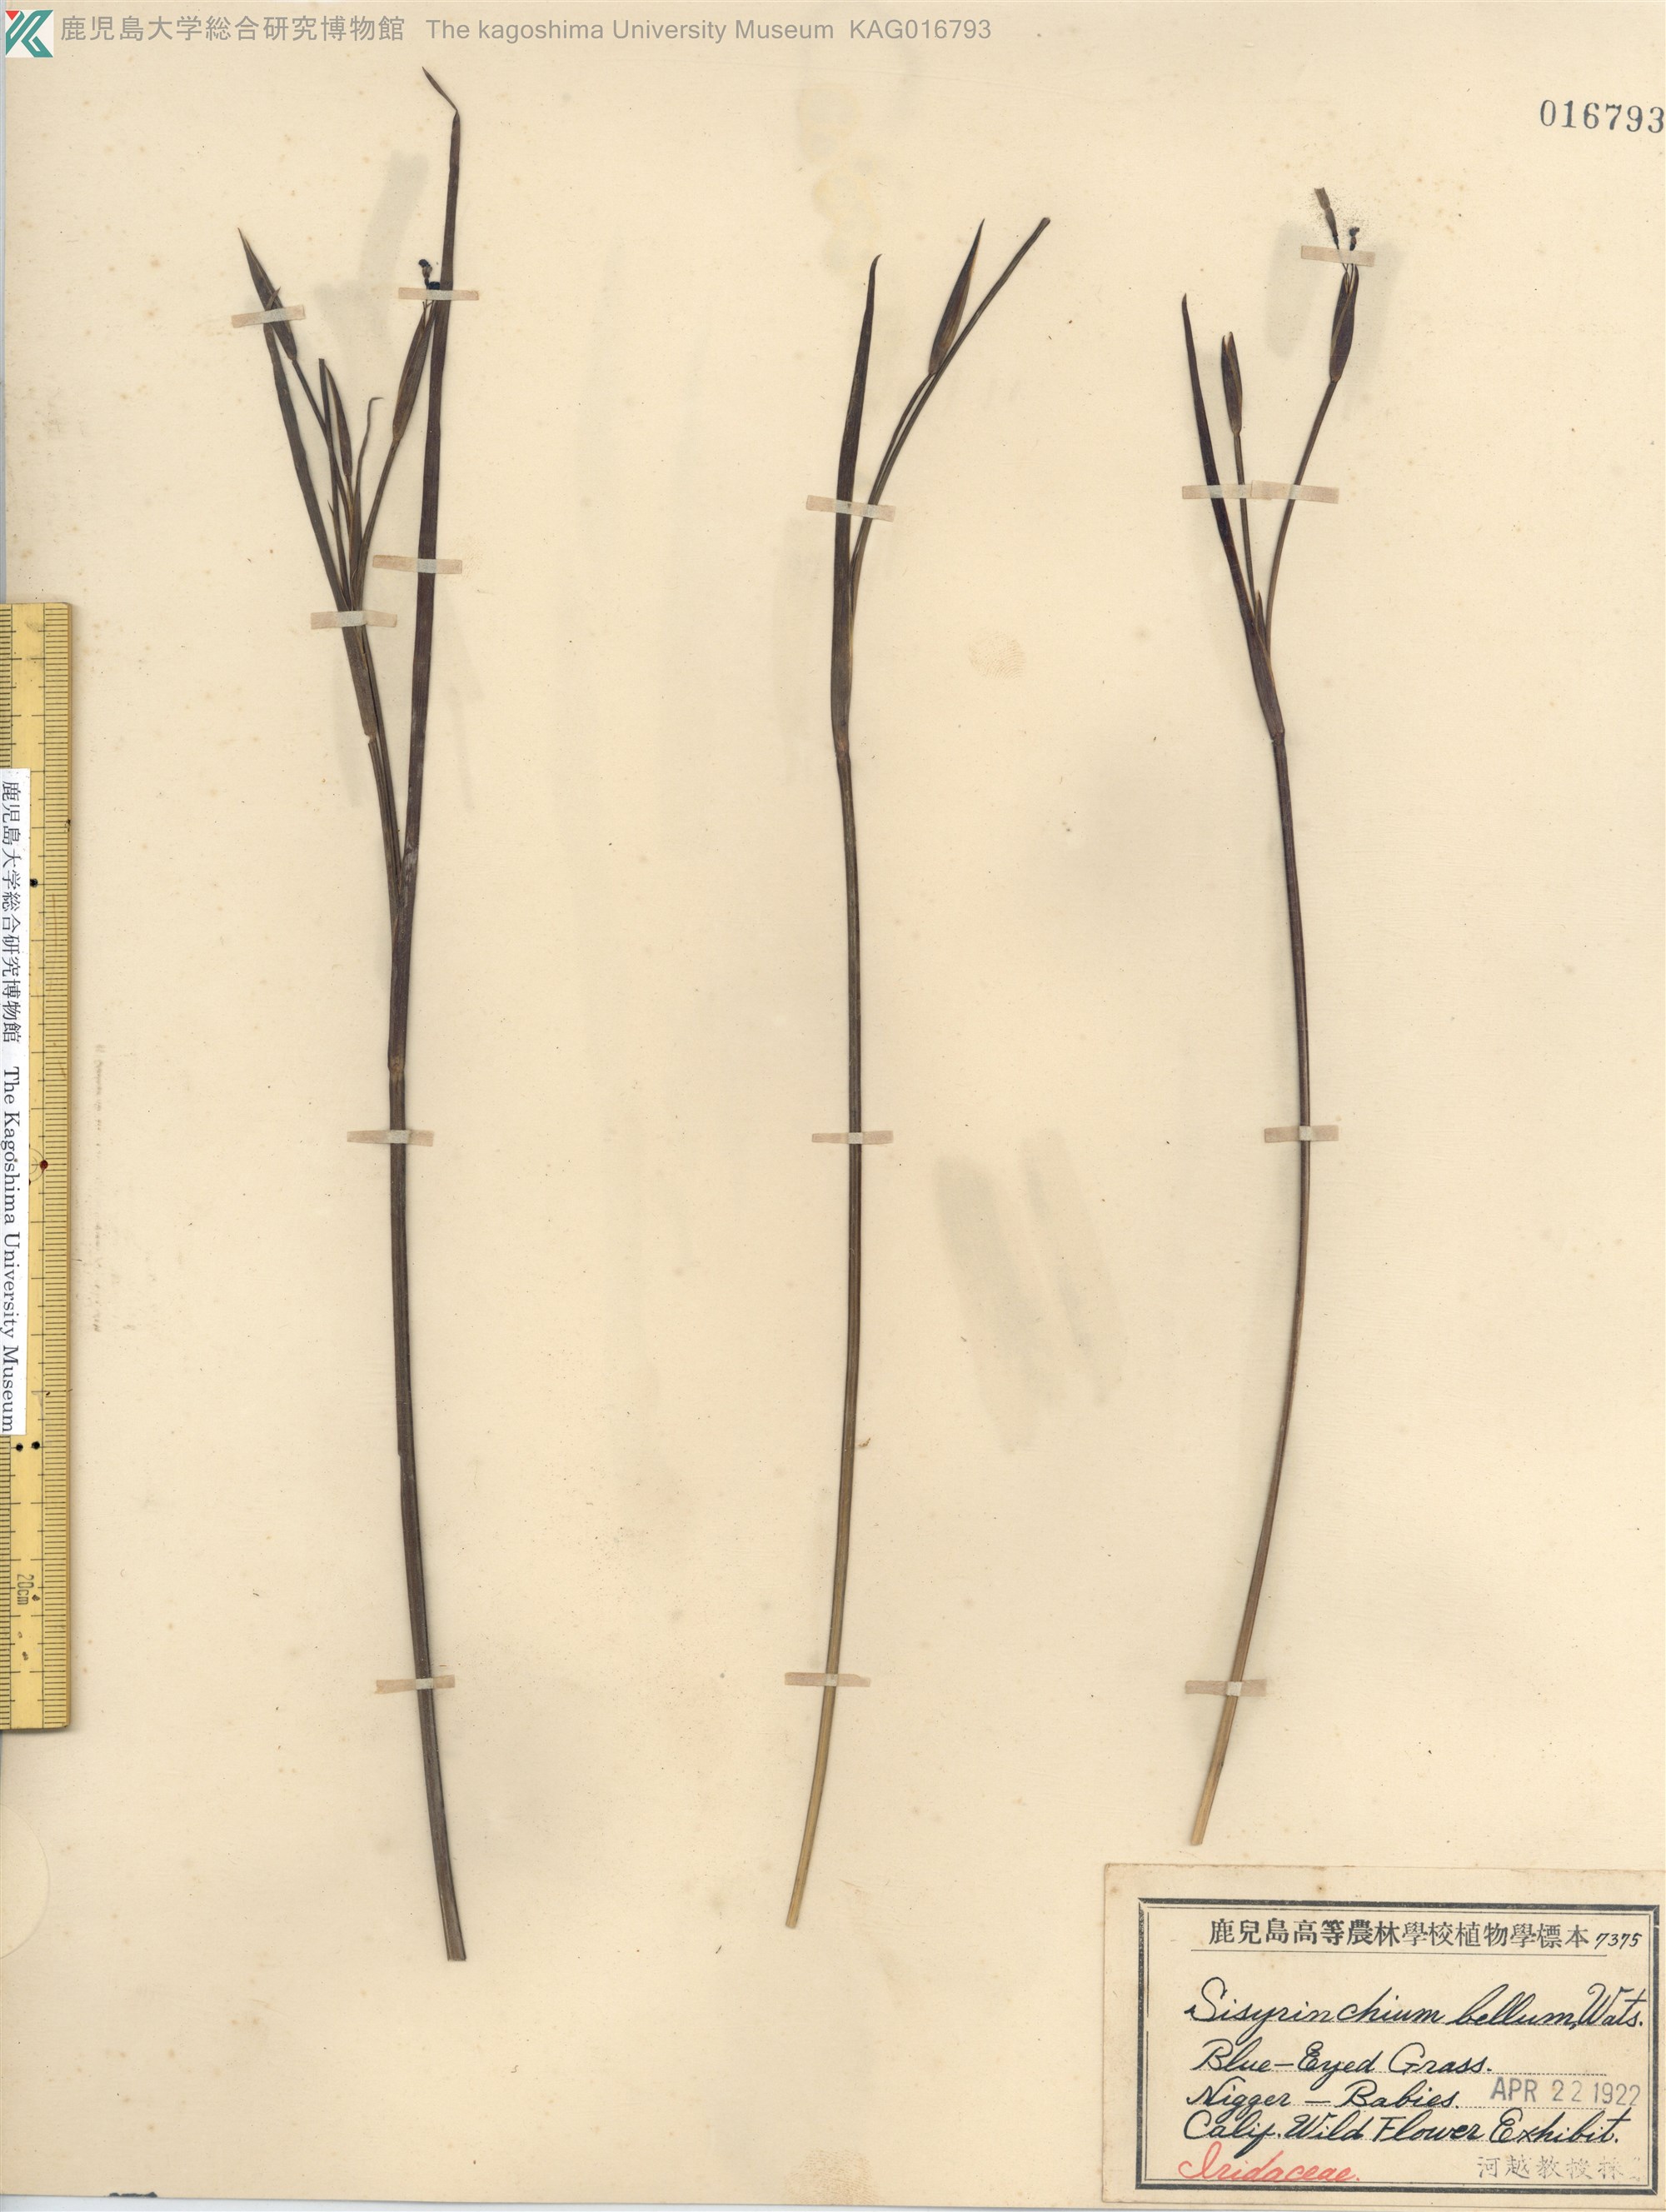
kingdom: Plantae
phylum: Tracheophyta
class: Liliopsida
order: Asparagales
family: Iridaceae
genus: Sisyrinchium
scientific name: Sisyrinchium bellum
